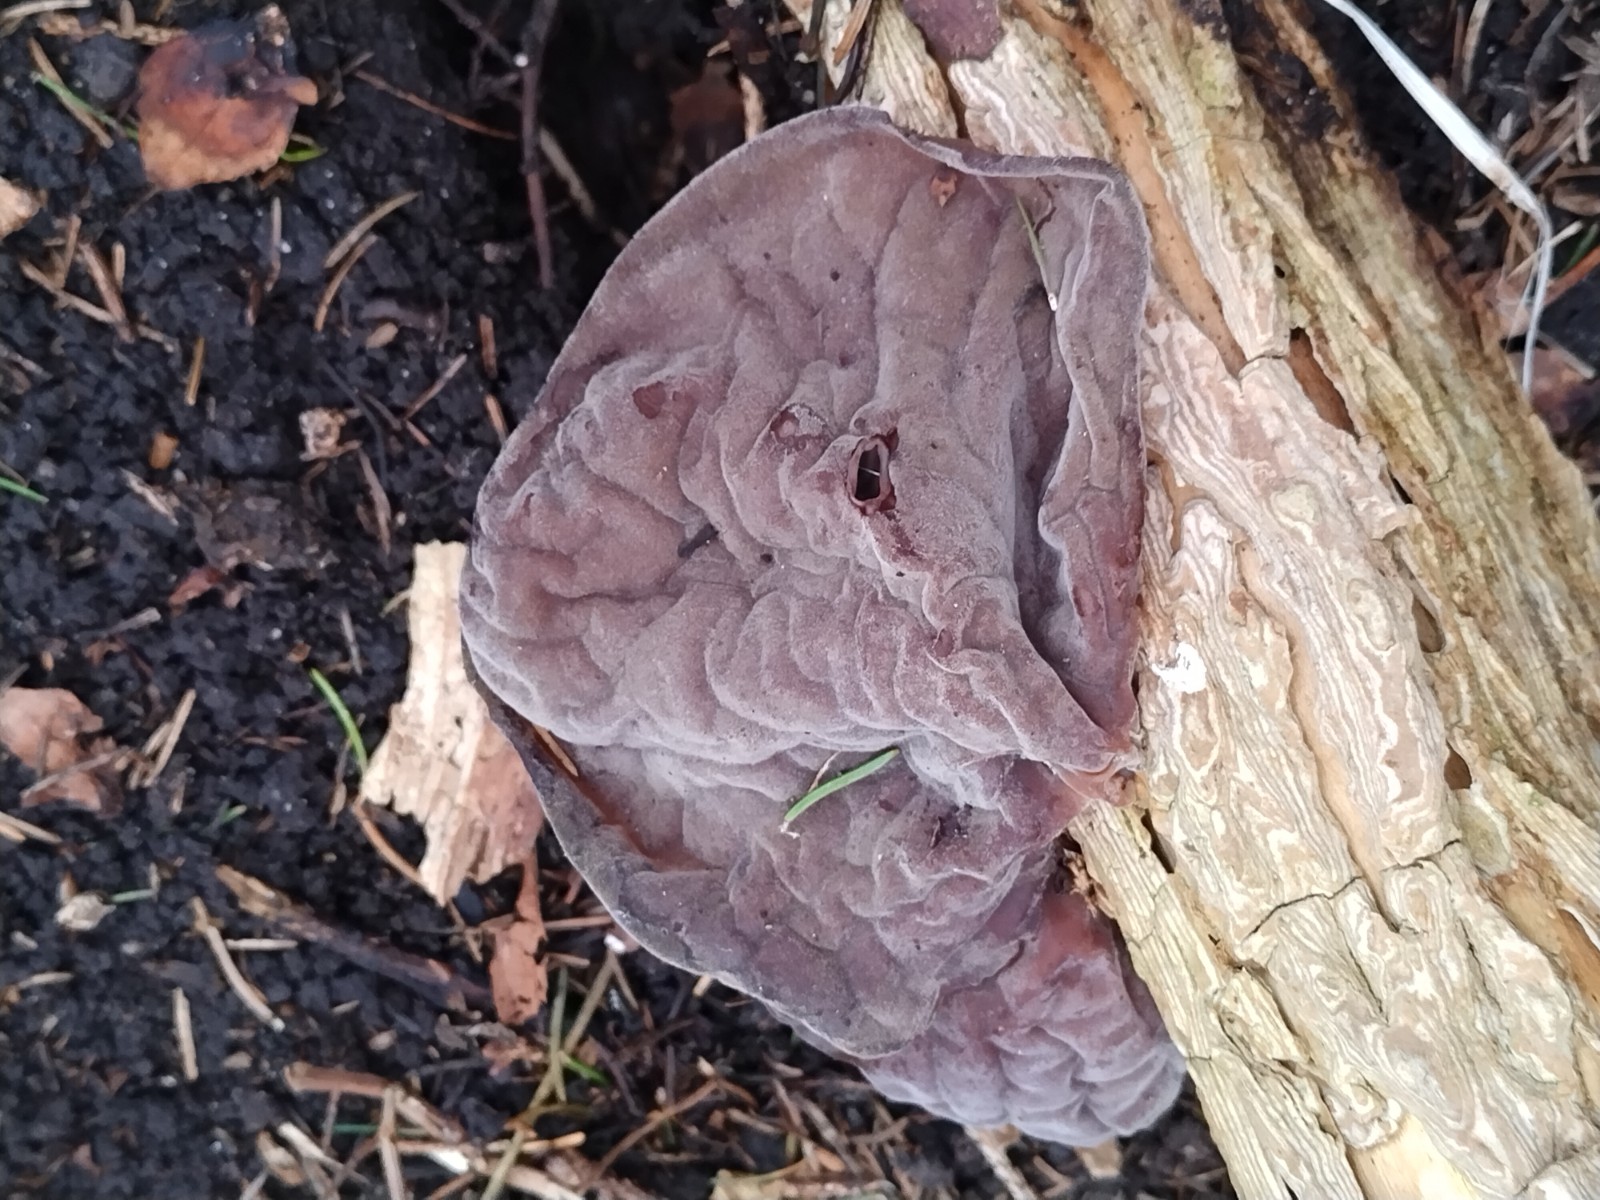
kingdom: Fungi
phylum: Basidiomycota
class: Agaricomycetes
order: Auriculariales
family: Auriculariaceae
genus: Auricularia
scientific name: Auricularia auricula-judae
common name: almindelig judasøre
